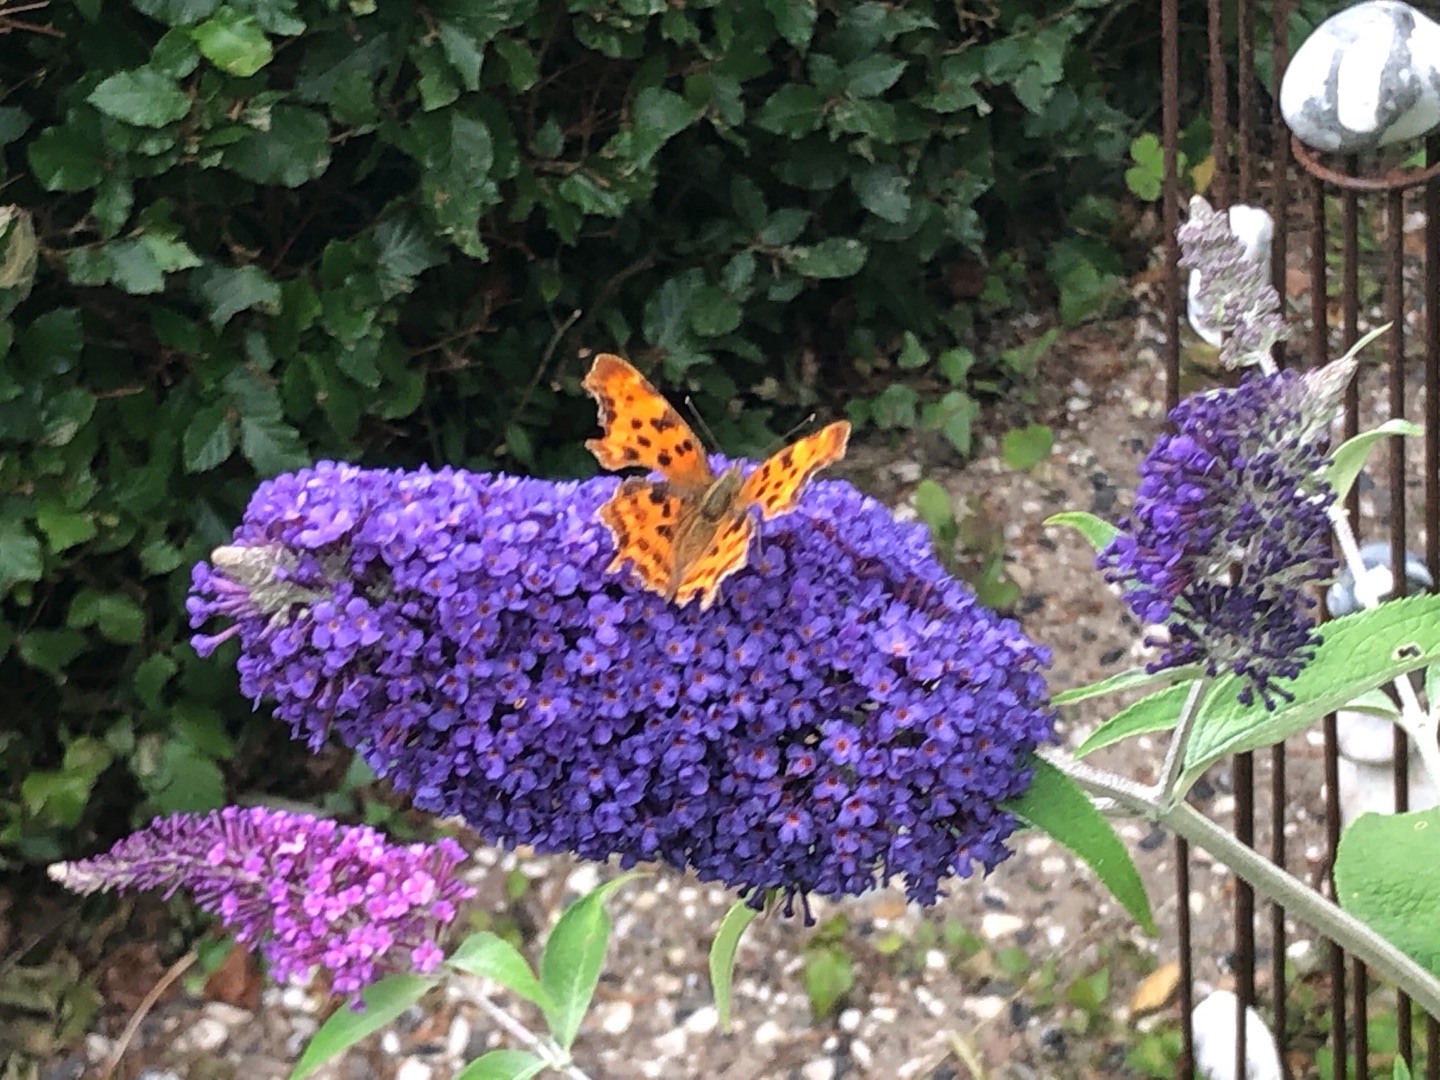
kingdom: Animalia
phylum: Arthropoda
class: Insecta
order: Lepidoptera
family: Nymphalidae
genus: Polygonia
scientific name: Polygonia c-album
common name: Det hvide C
